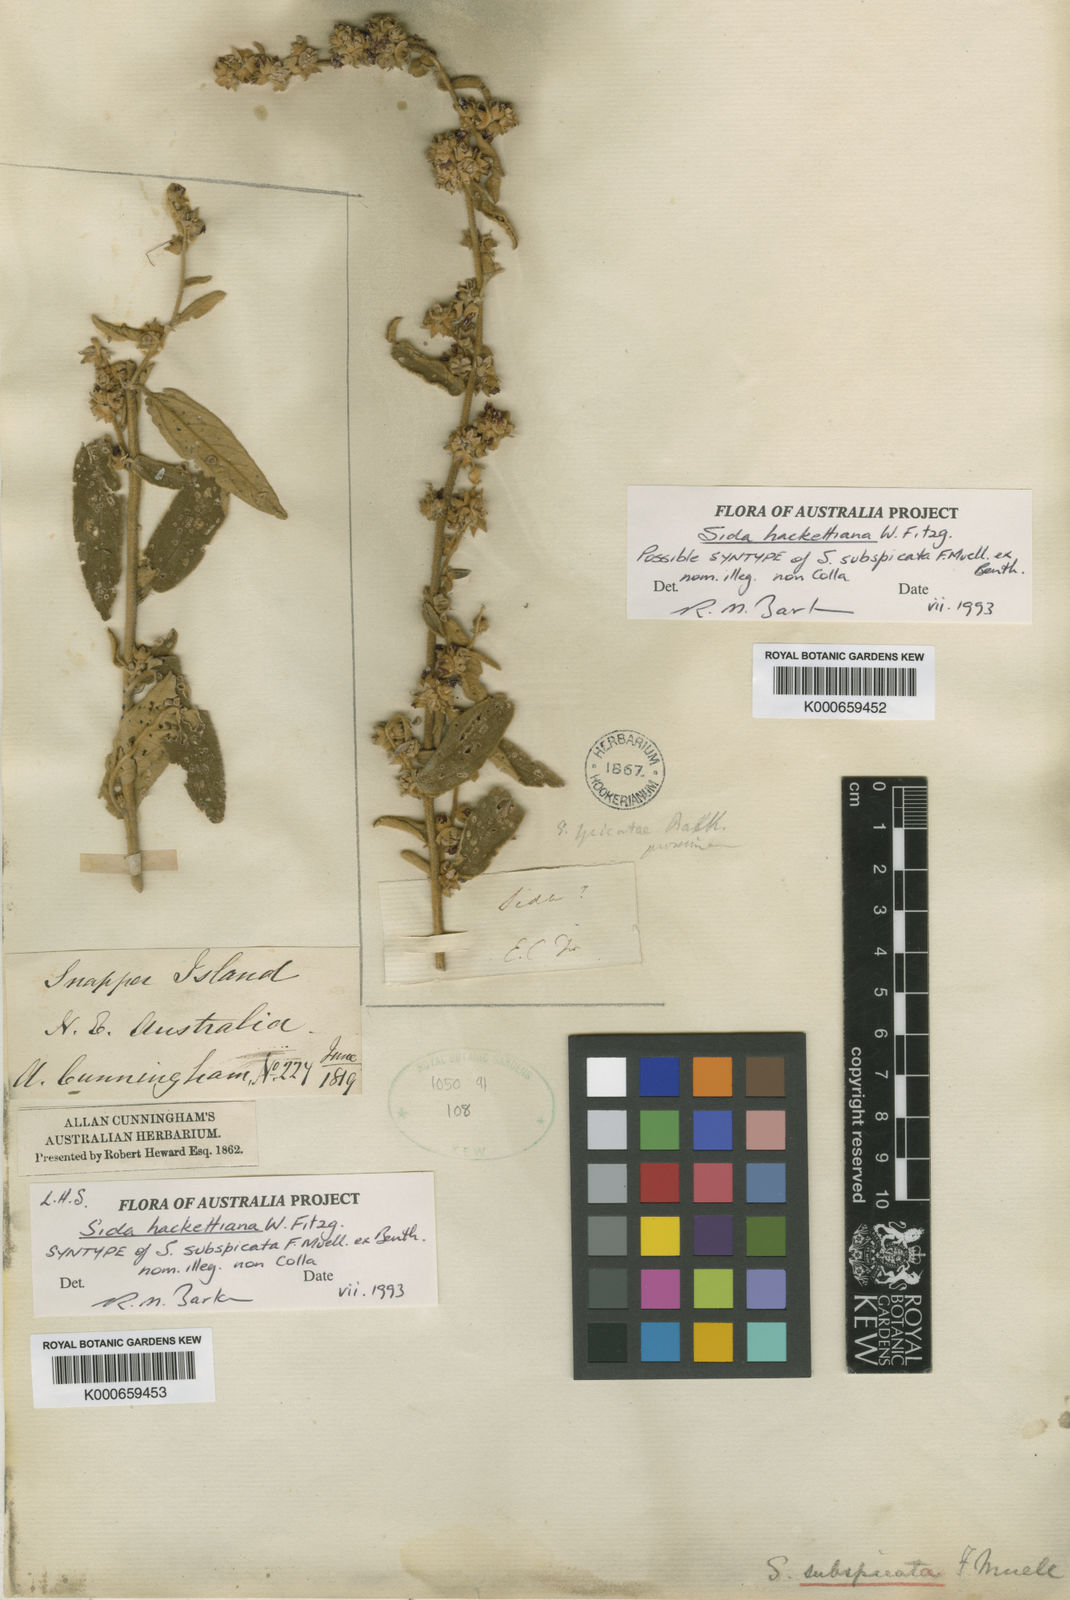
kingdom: Plantae
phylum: Tracheophyta
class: Magnoliopsida
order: Malvales
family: Malvaceae
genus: Sida
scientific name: Sida hackettiana
